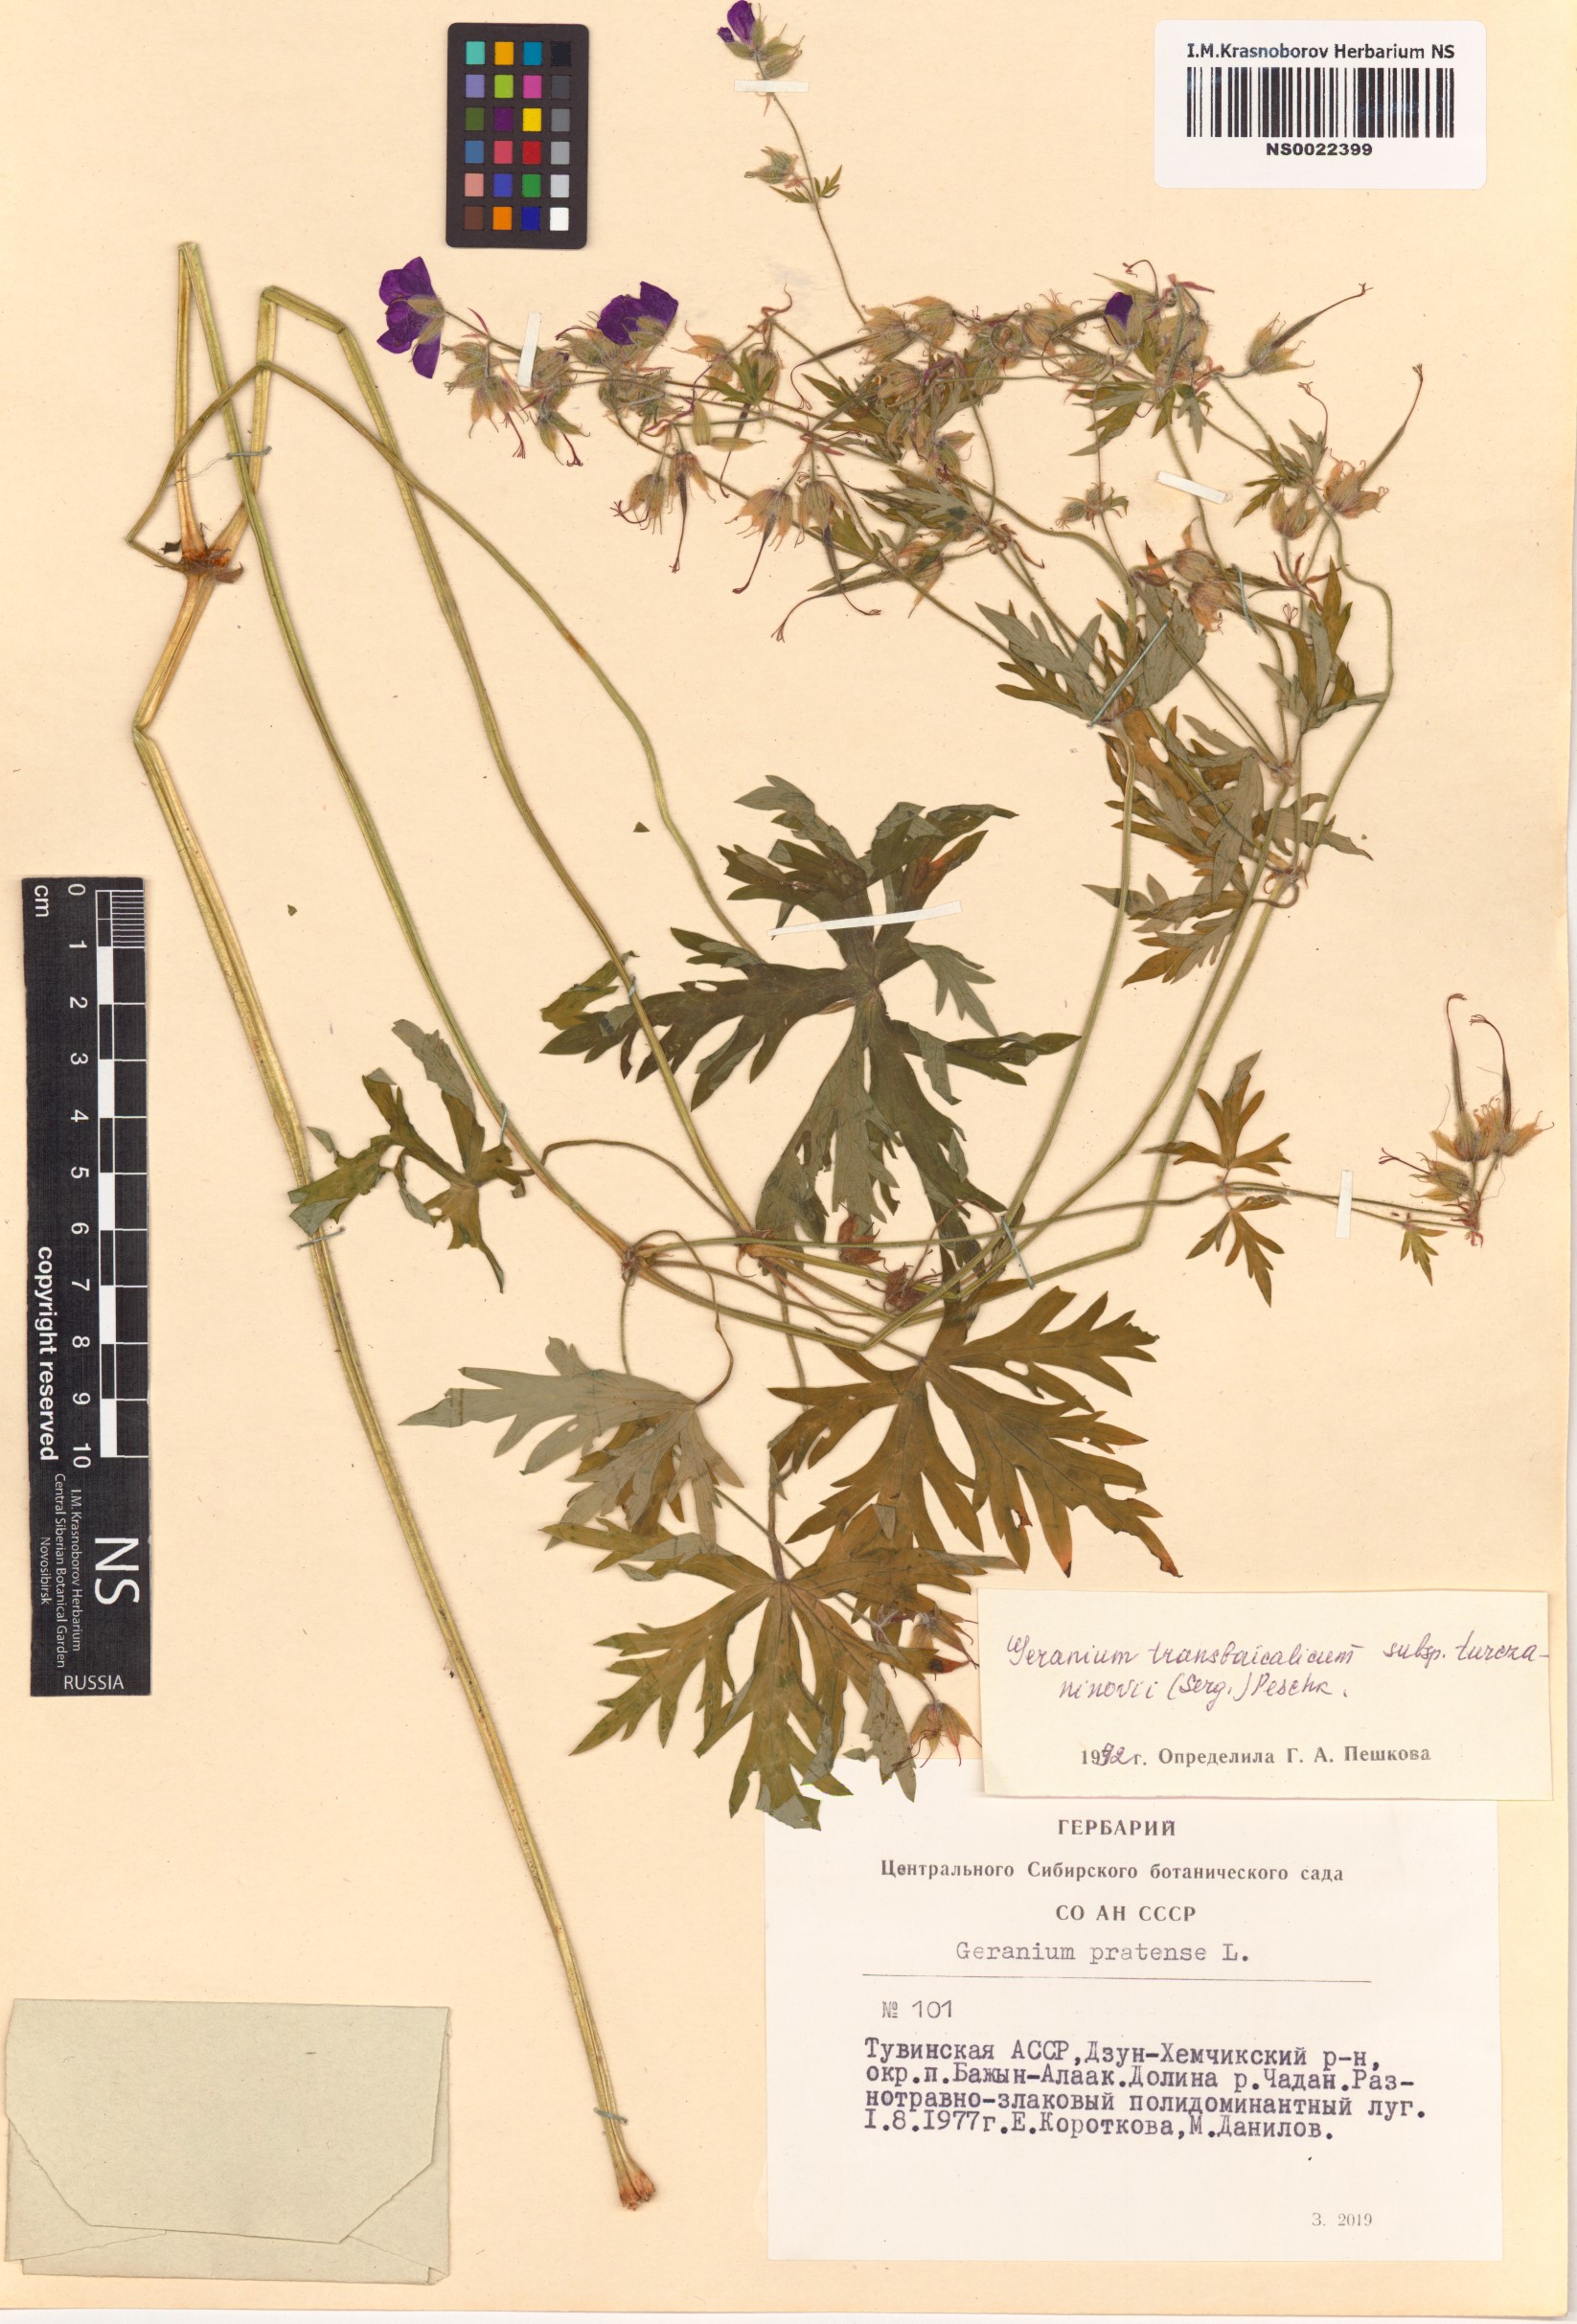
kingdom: Plantae
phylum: Tracheophyta
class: Magnoliopsida
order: Geraniales
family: Geraniaceae
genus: Geranium
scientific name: Geranium pratense
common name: Meadow crane's-bill
